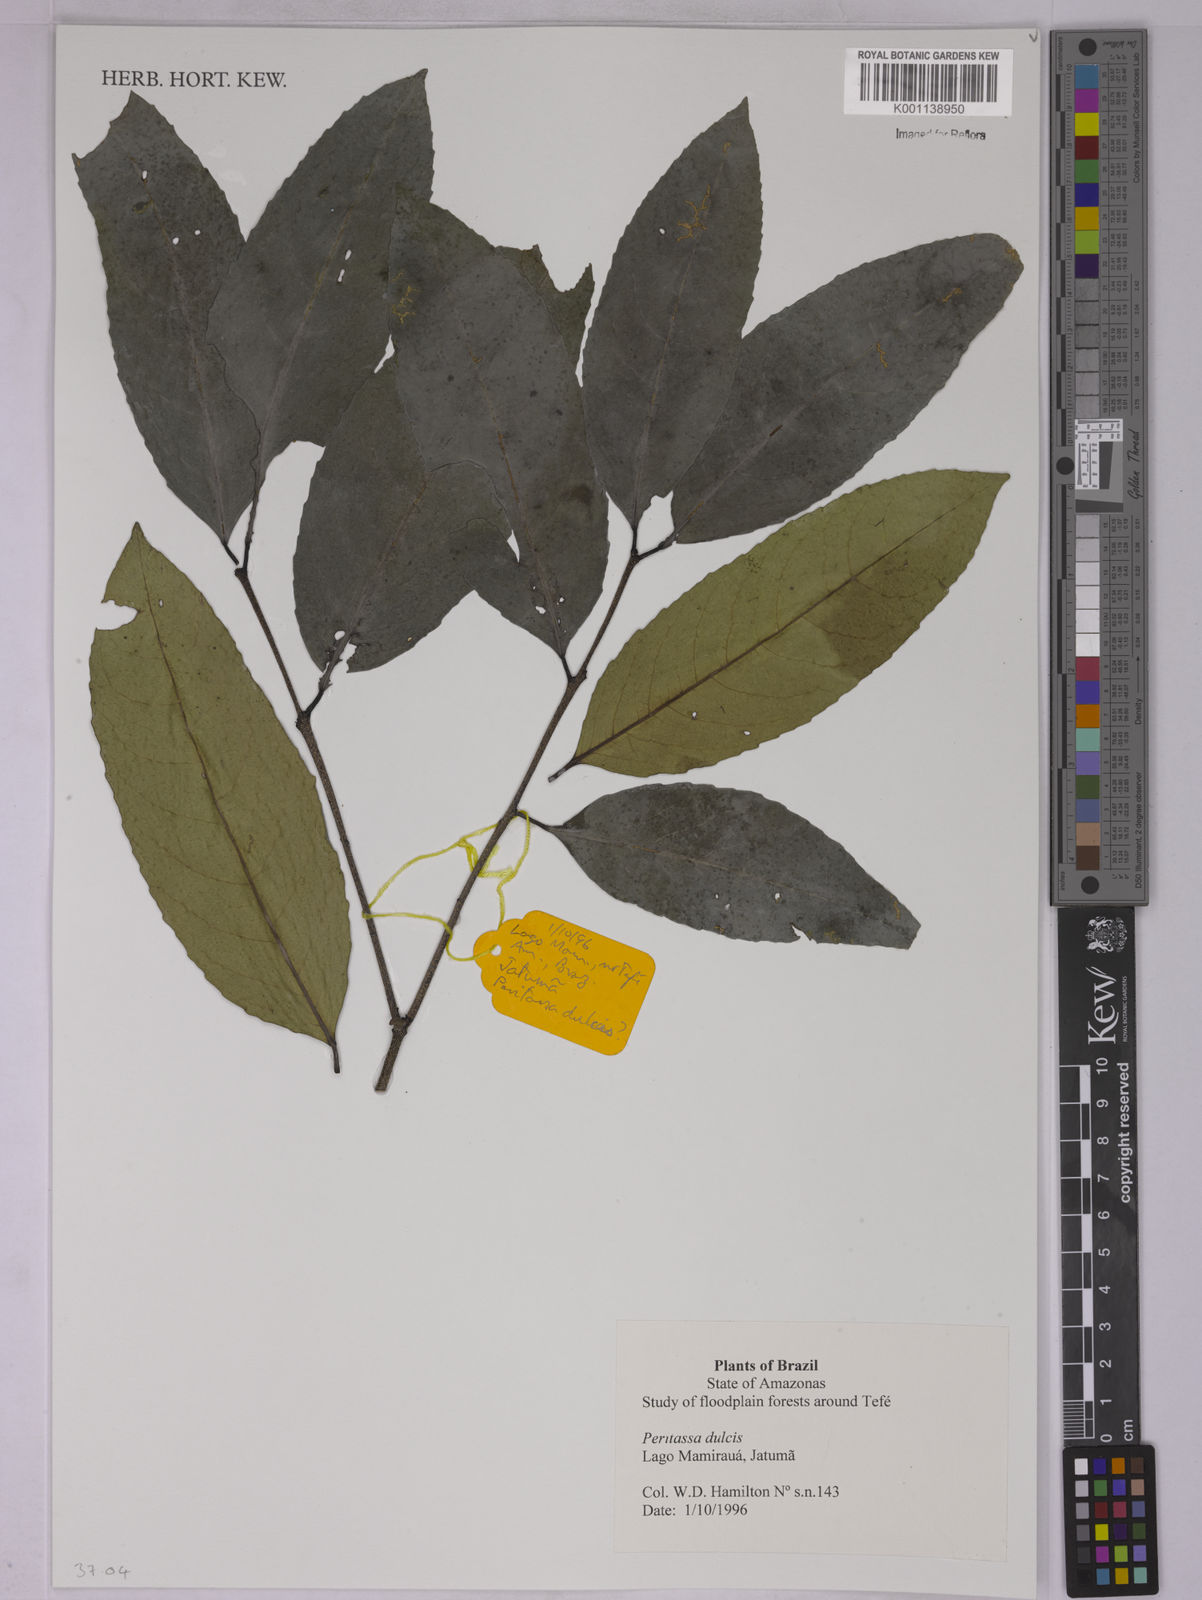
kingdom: Plantae
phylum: Tracheophyta
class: Magnoliopsida
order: Celastrales
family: Celastraceae
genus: Peritassa
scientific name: Peritassa dulcis
